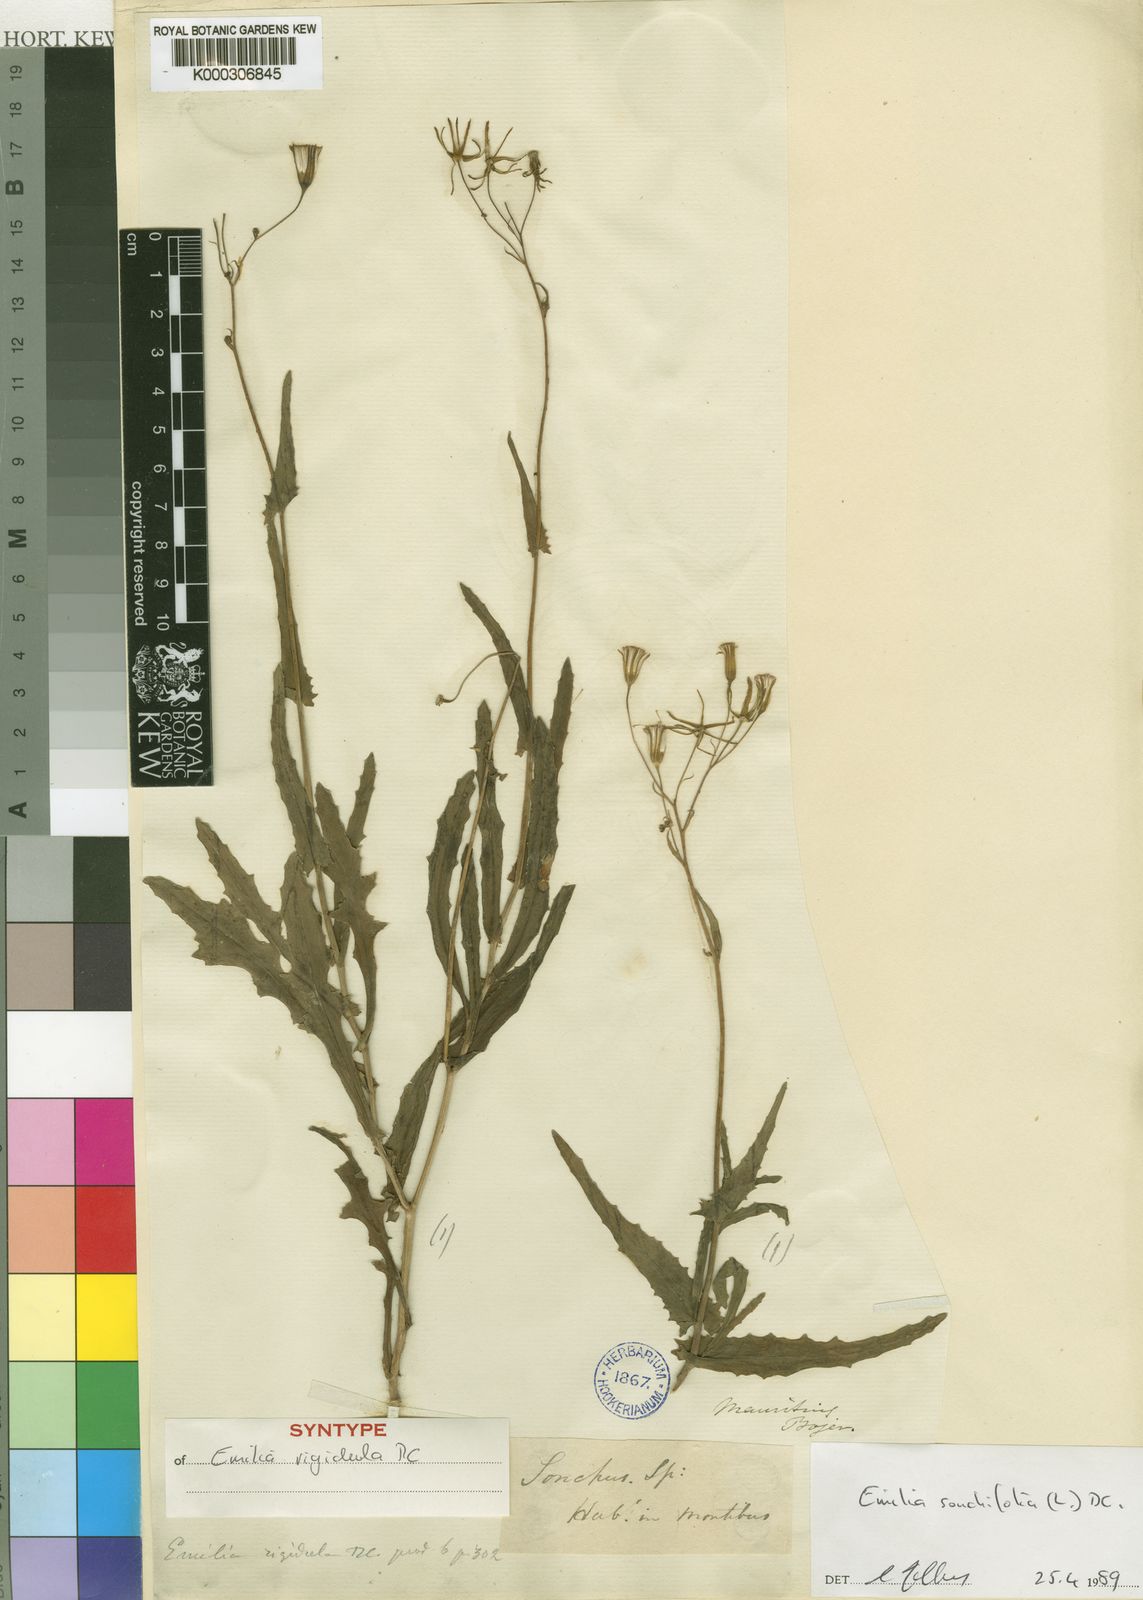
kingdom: Plantae
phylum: Tracheophyta
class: Magnoliopsida
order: Asterales
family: Asteraceae
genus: Emilia
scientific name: Emilia
